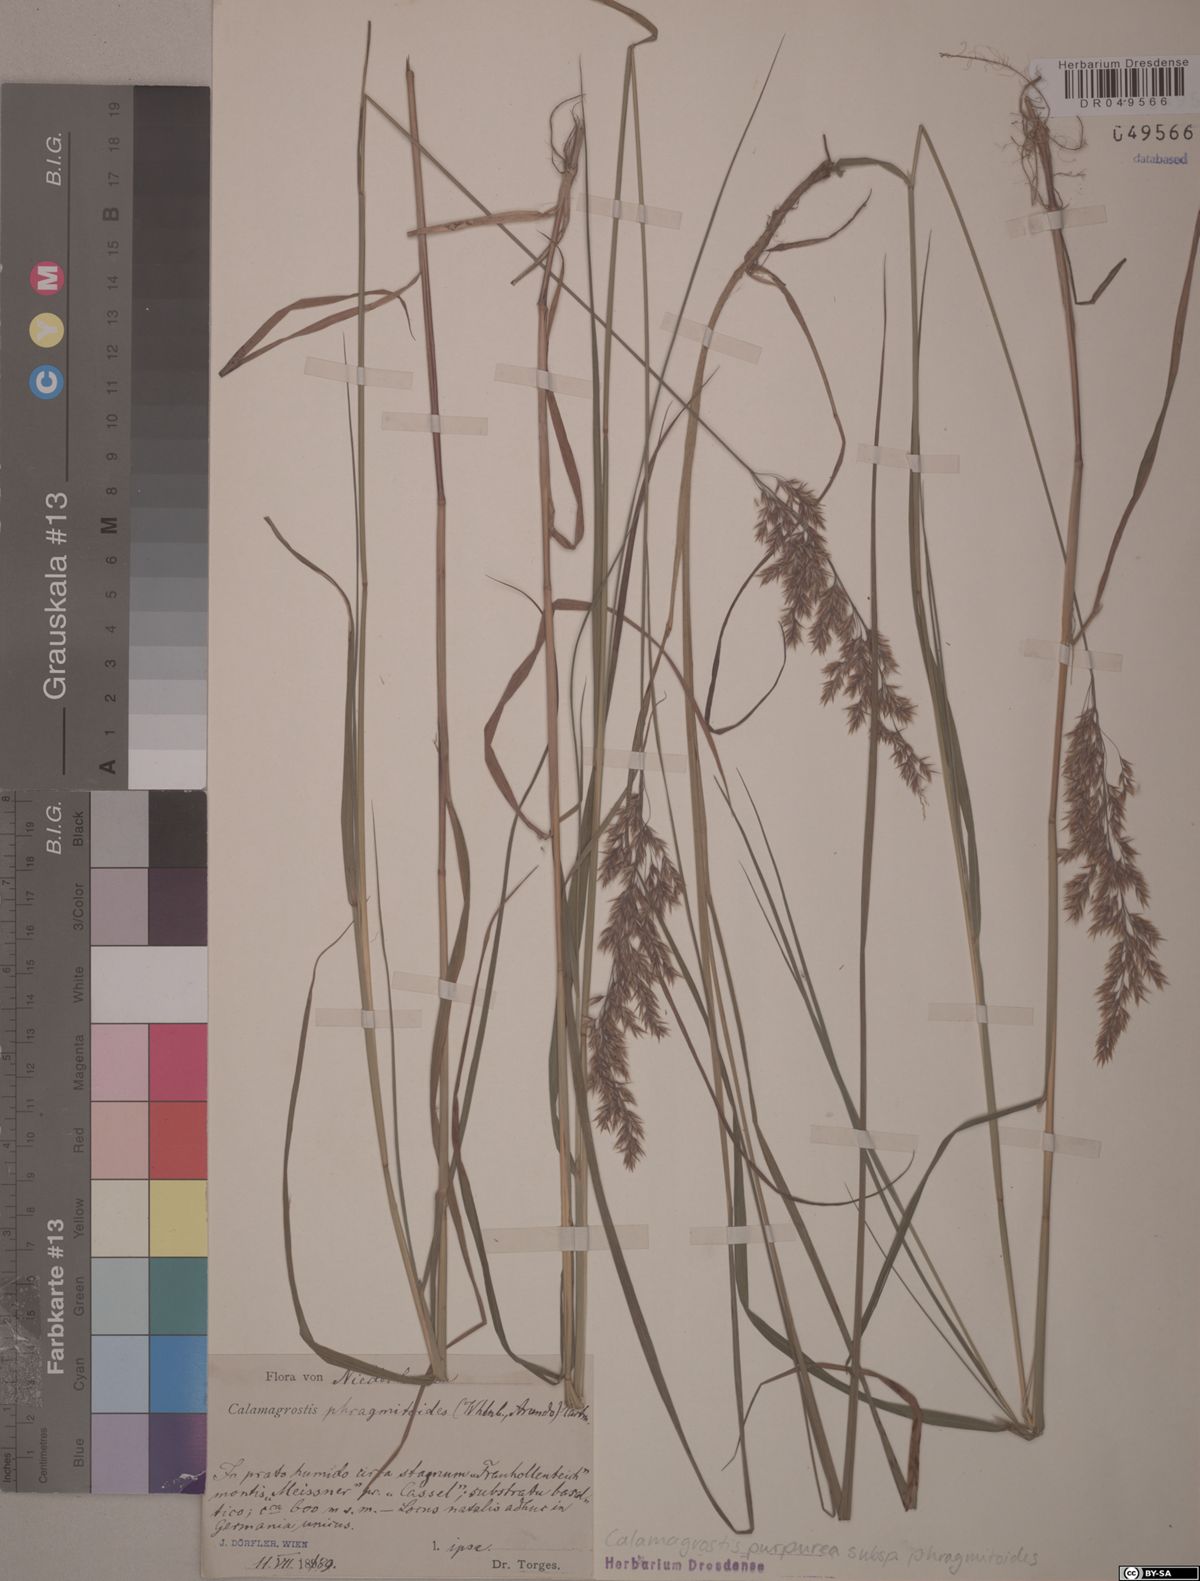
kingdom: Plantae
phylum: Tracheophyta
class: Liliopsida
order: Poales
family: Poaceae
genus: Calamagrostis
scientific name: Calamagrostis purpurea
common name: Scandinavian small-reed
